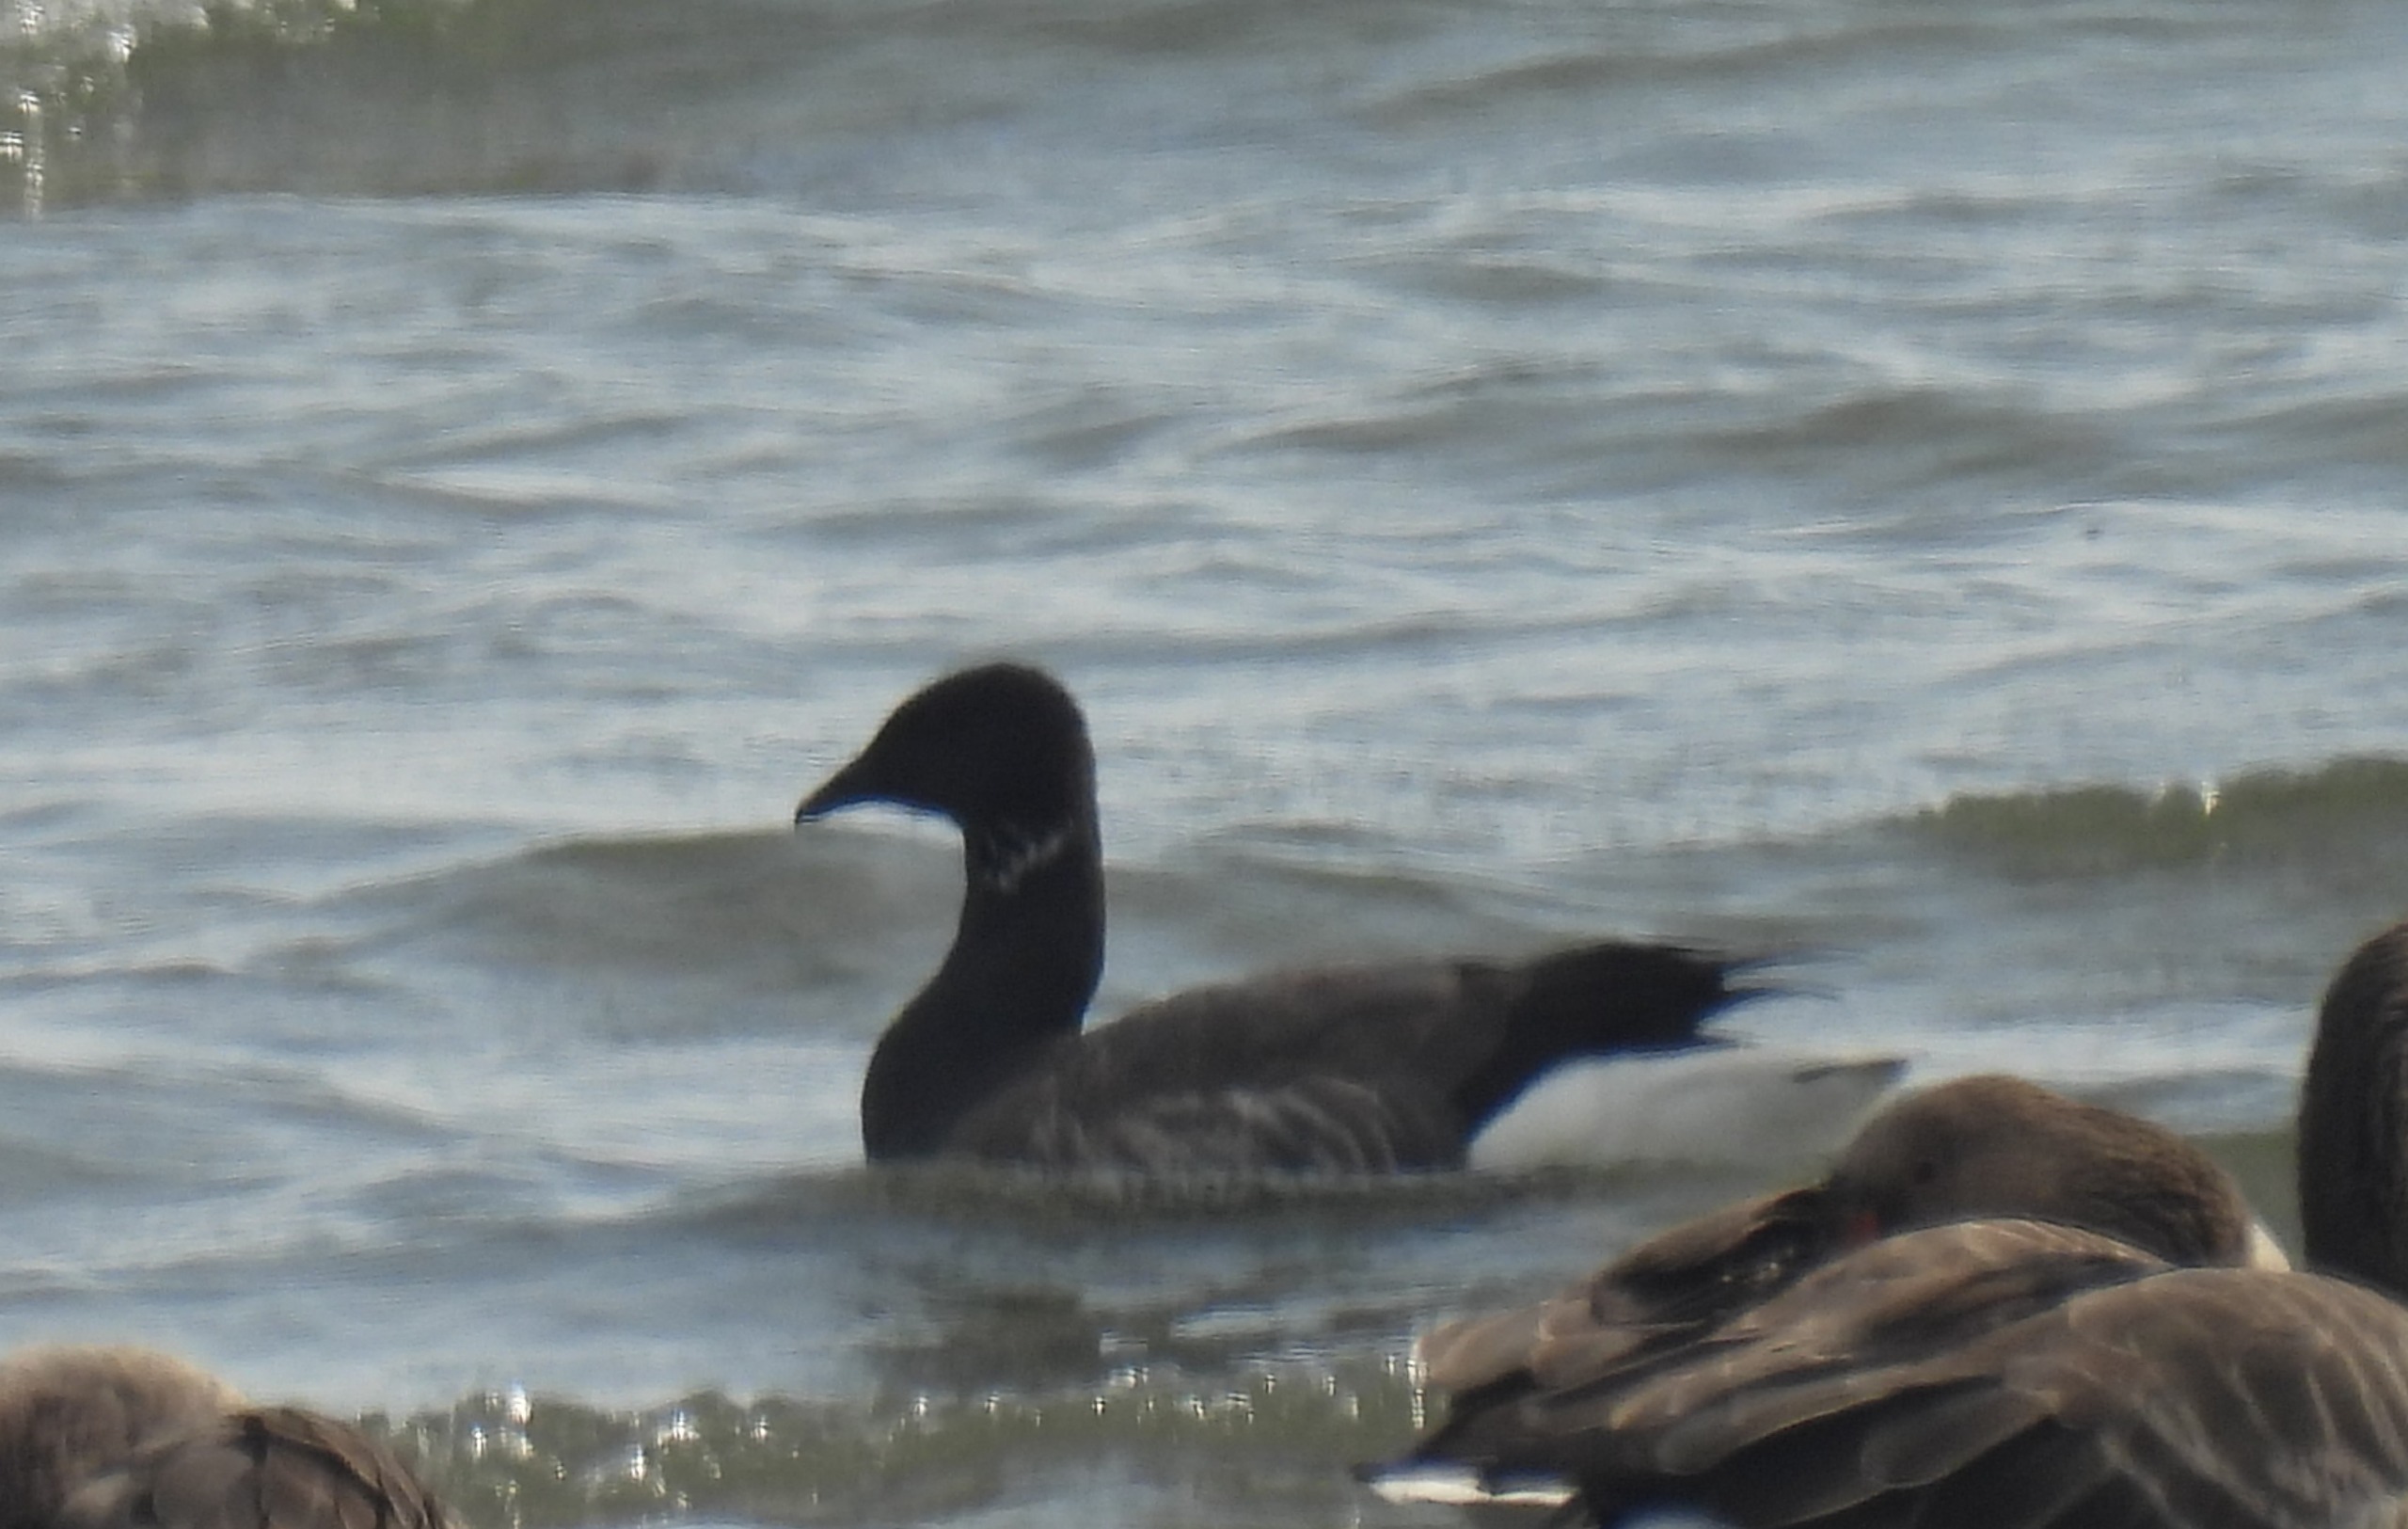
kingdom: Animalia
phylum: Chordata
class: Aves
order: Anseriformes
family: Anatidae
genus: Branta
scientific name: Branta bernicla
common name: Knortegås
